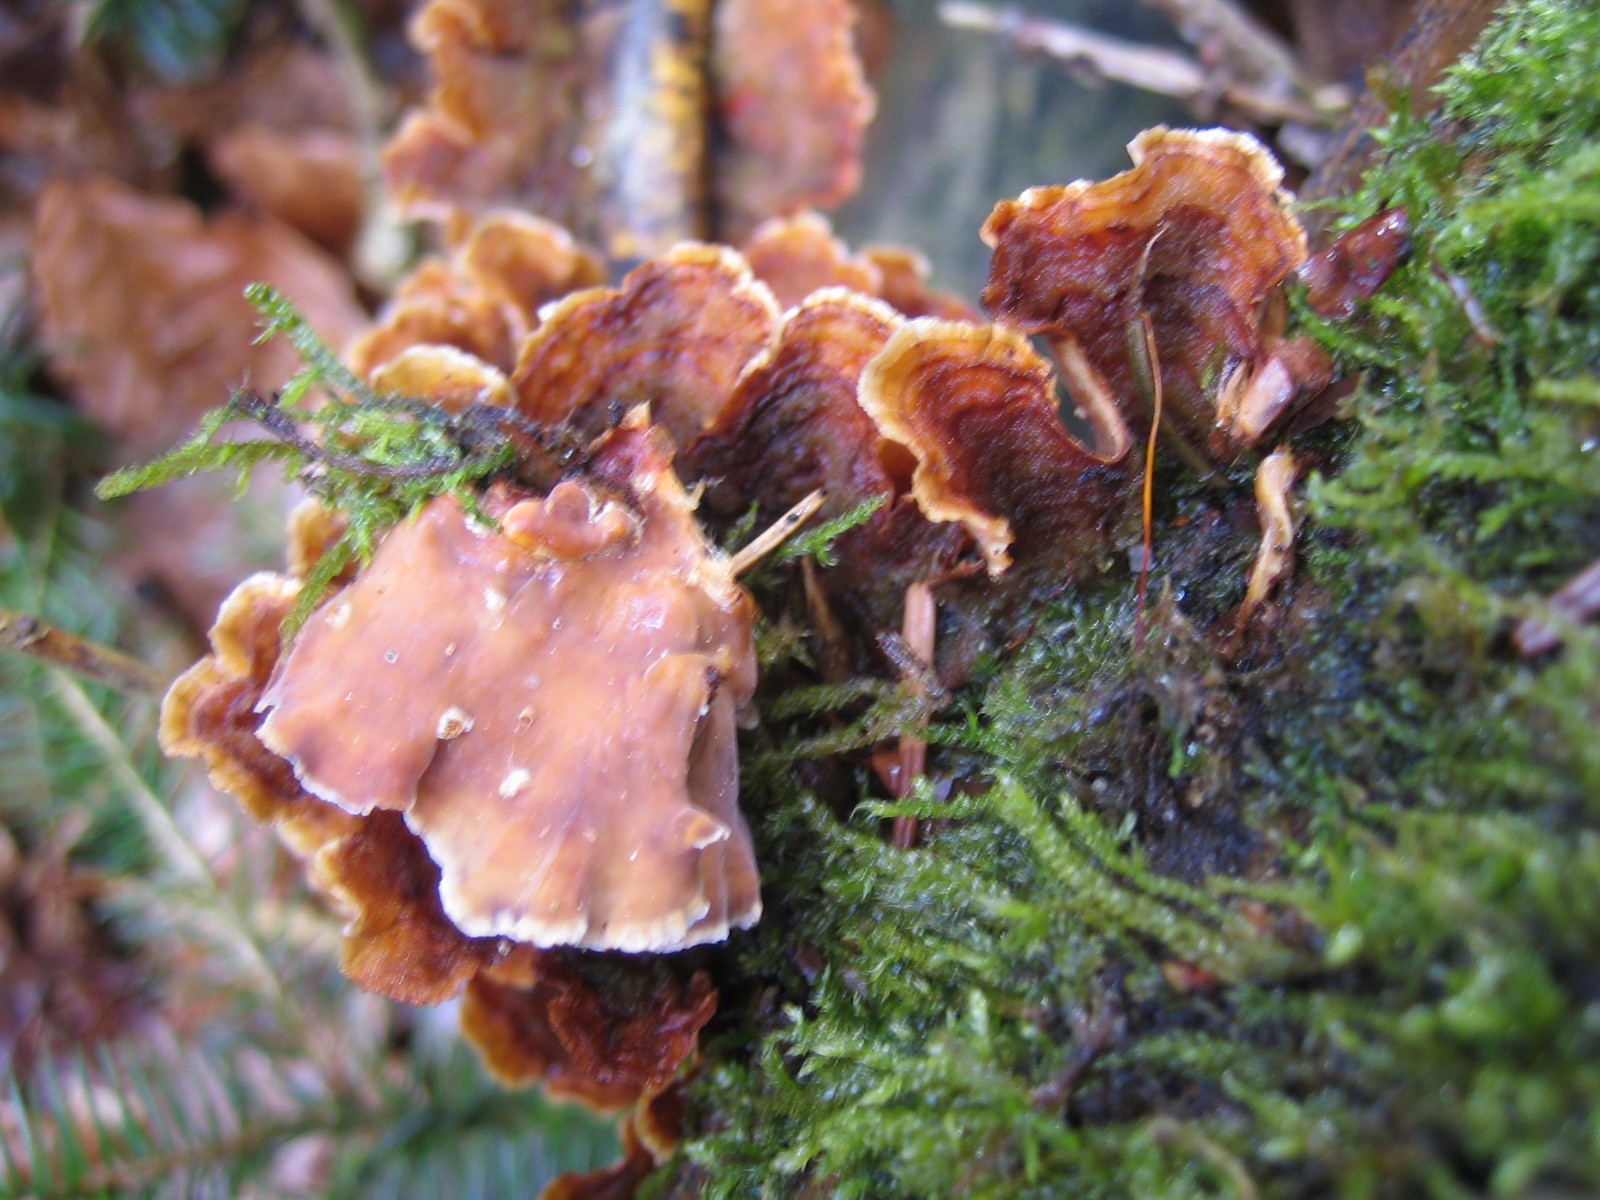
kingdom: Fungi
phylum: Basidiomycota
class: Agaricomycetes
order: Russulales
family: Stereaceae
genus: Stereum
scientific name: Stereum hirsutum
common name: håret lædersvamp
